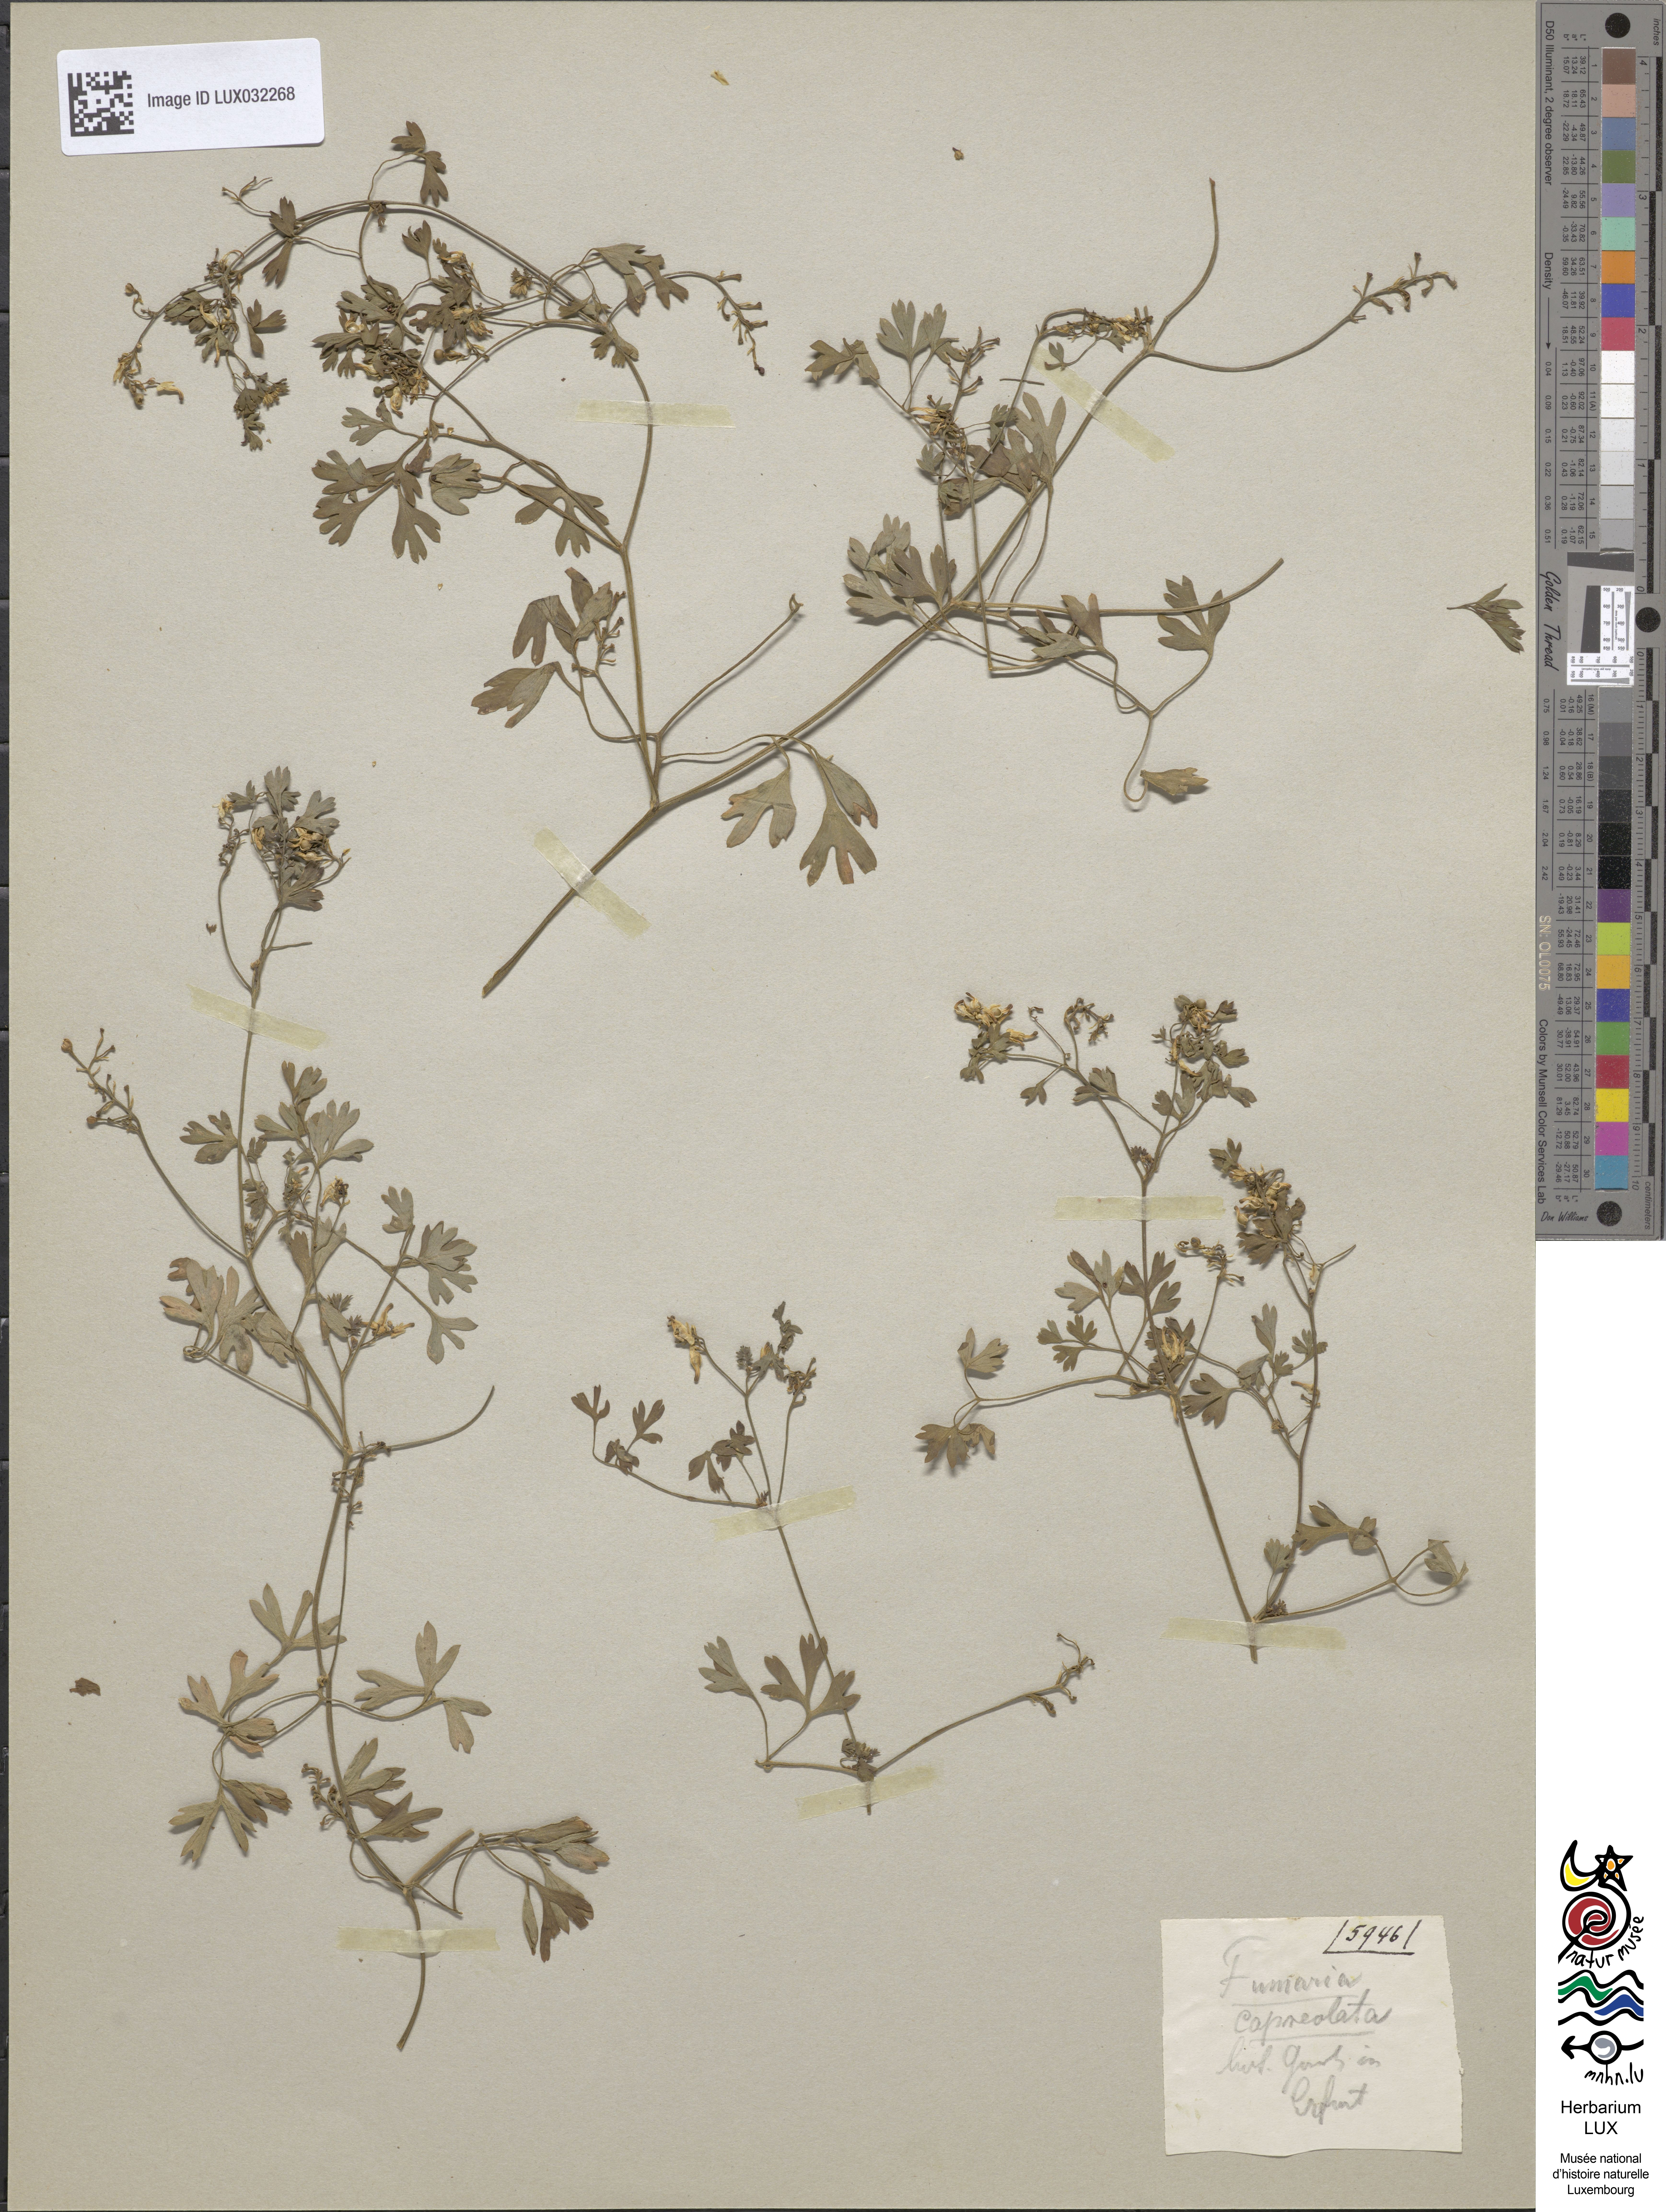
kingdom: Plantae
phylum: Tracheophyta
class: Magnoliopsida
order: Ranunculales
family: Papaveraceae
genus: Fumaria
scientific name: Fumaria capreolata
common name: White ramping-fumitory
